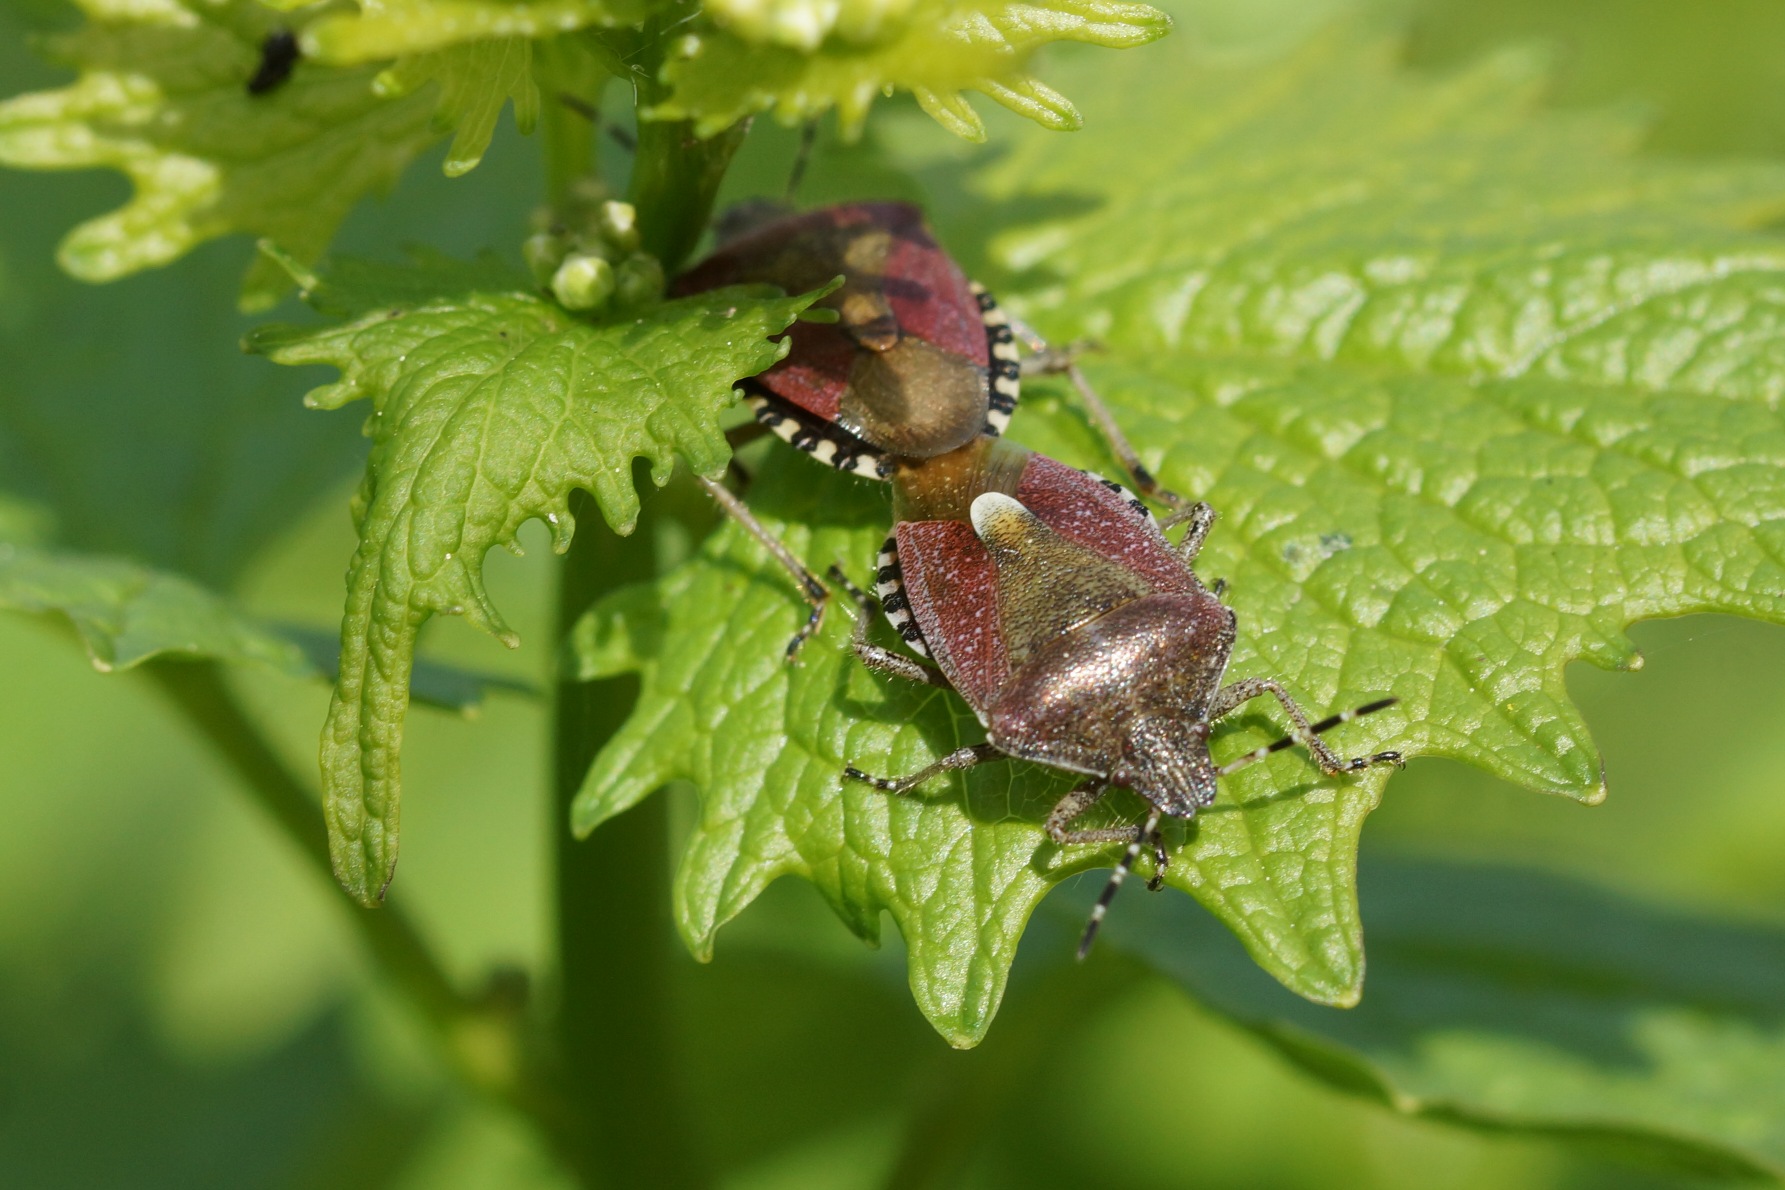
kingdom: Animalia
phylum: Arthropoda
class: Insecta
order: Hemiptera
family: Pentatomidae
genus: Dolycoris
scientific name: Dolycoris baccarum
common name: Almindelig bærtæge
